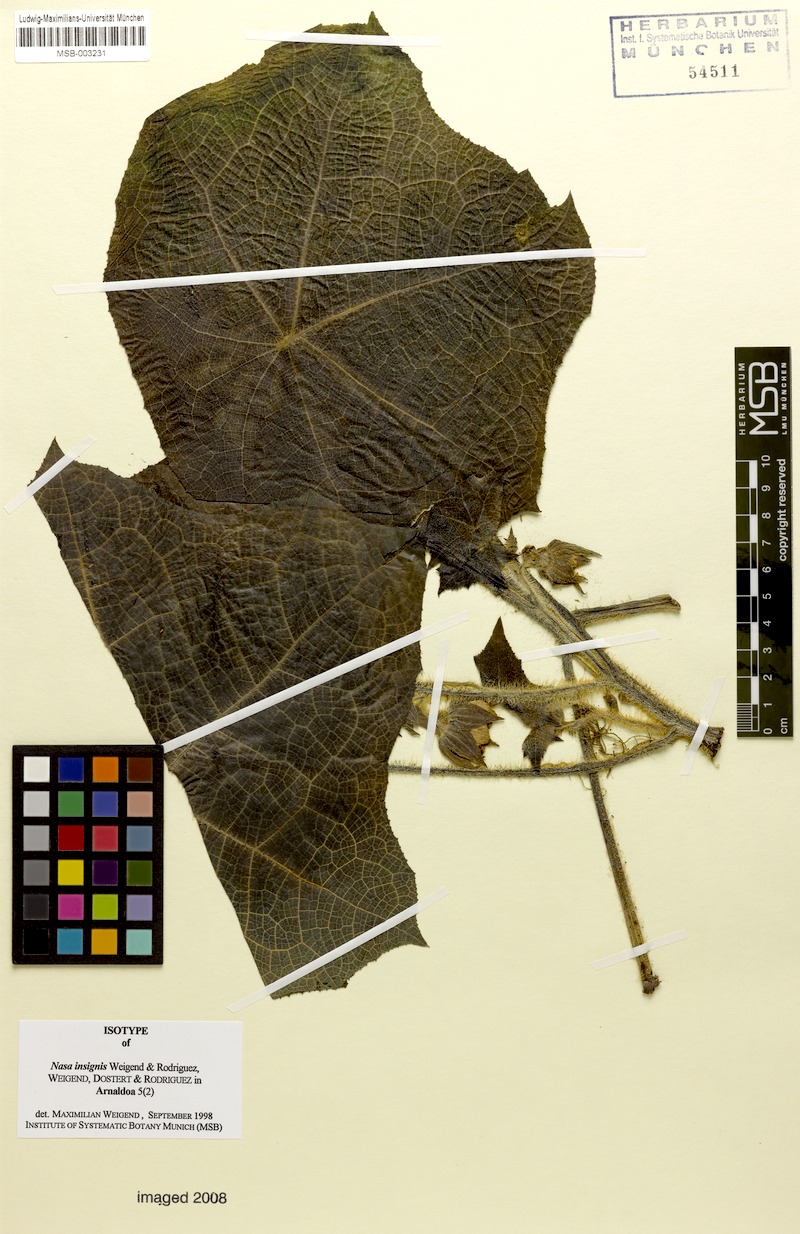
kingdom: Plantae
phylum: Tracheophyta
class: Magnoliopsida
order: Cornales
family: Loasaceae
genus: Nasa
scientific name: Nasa insignis
